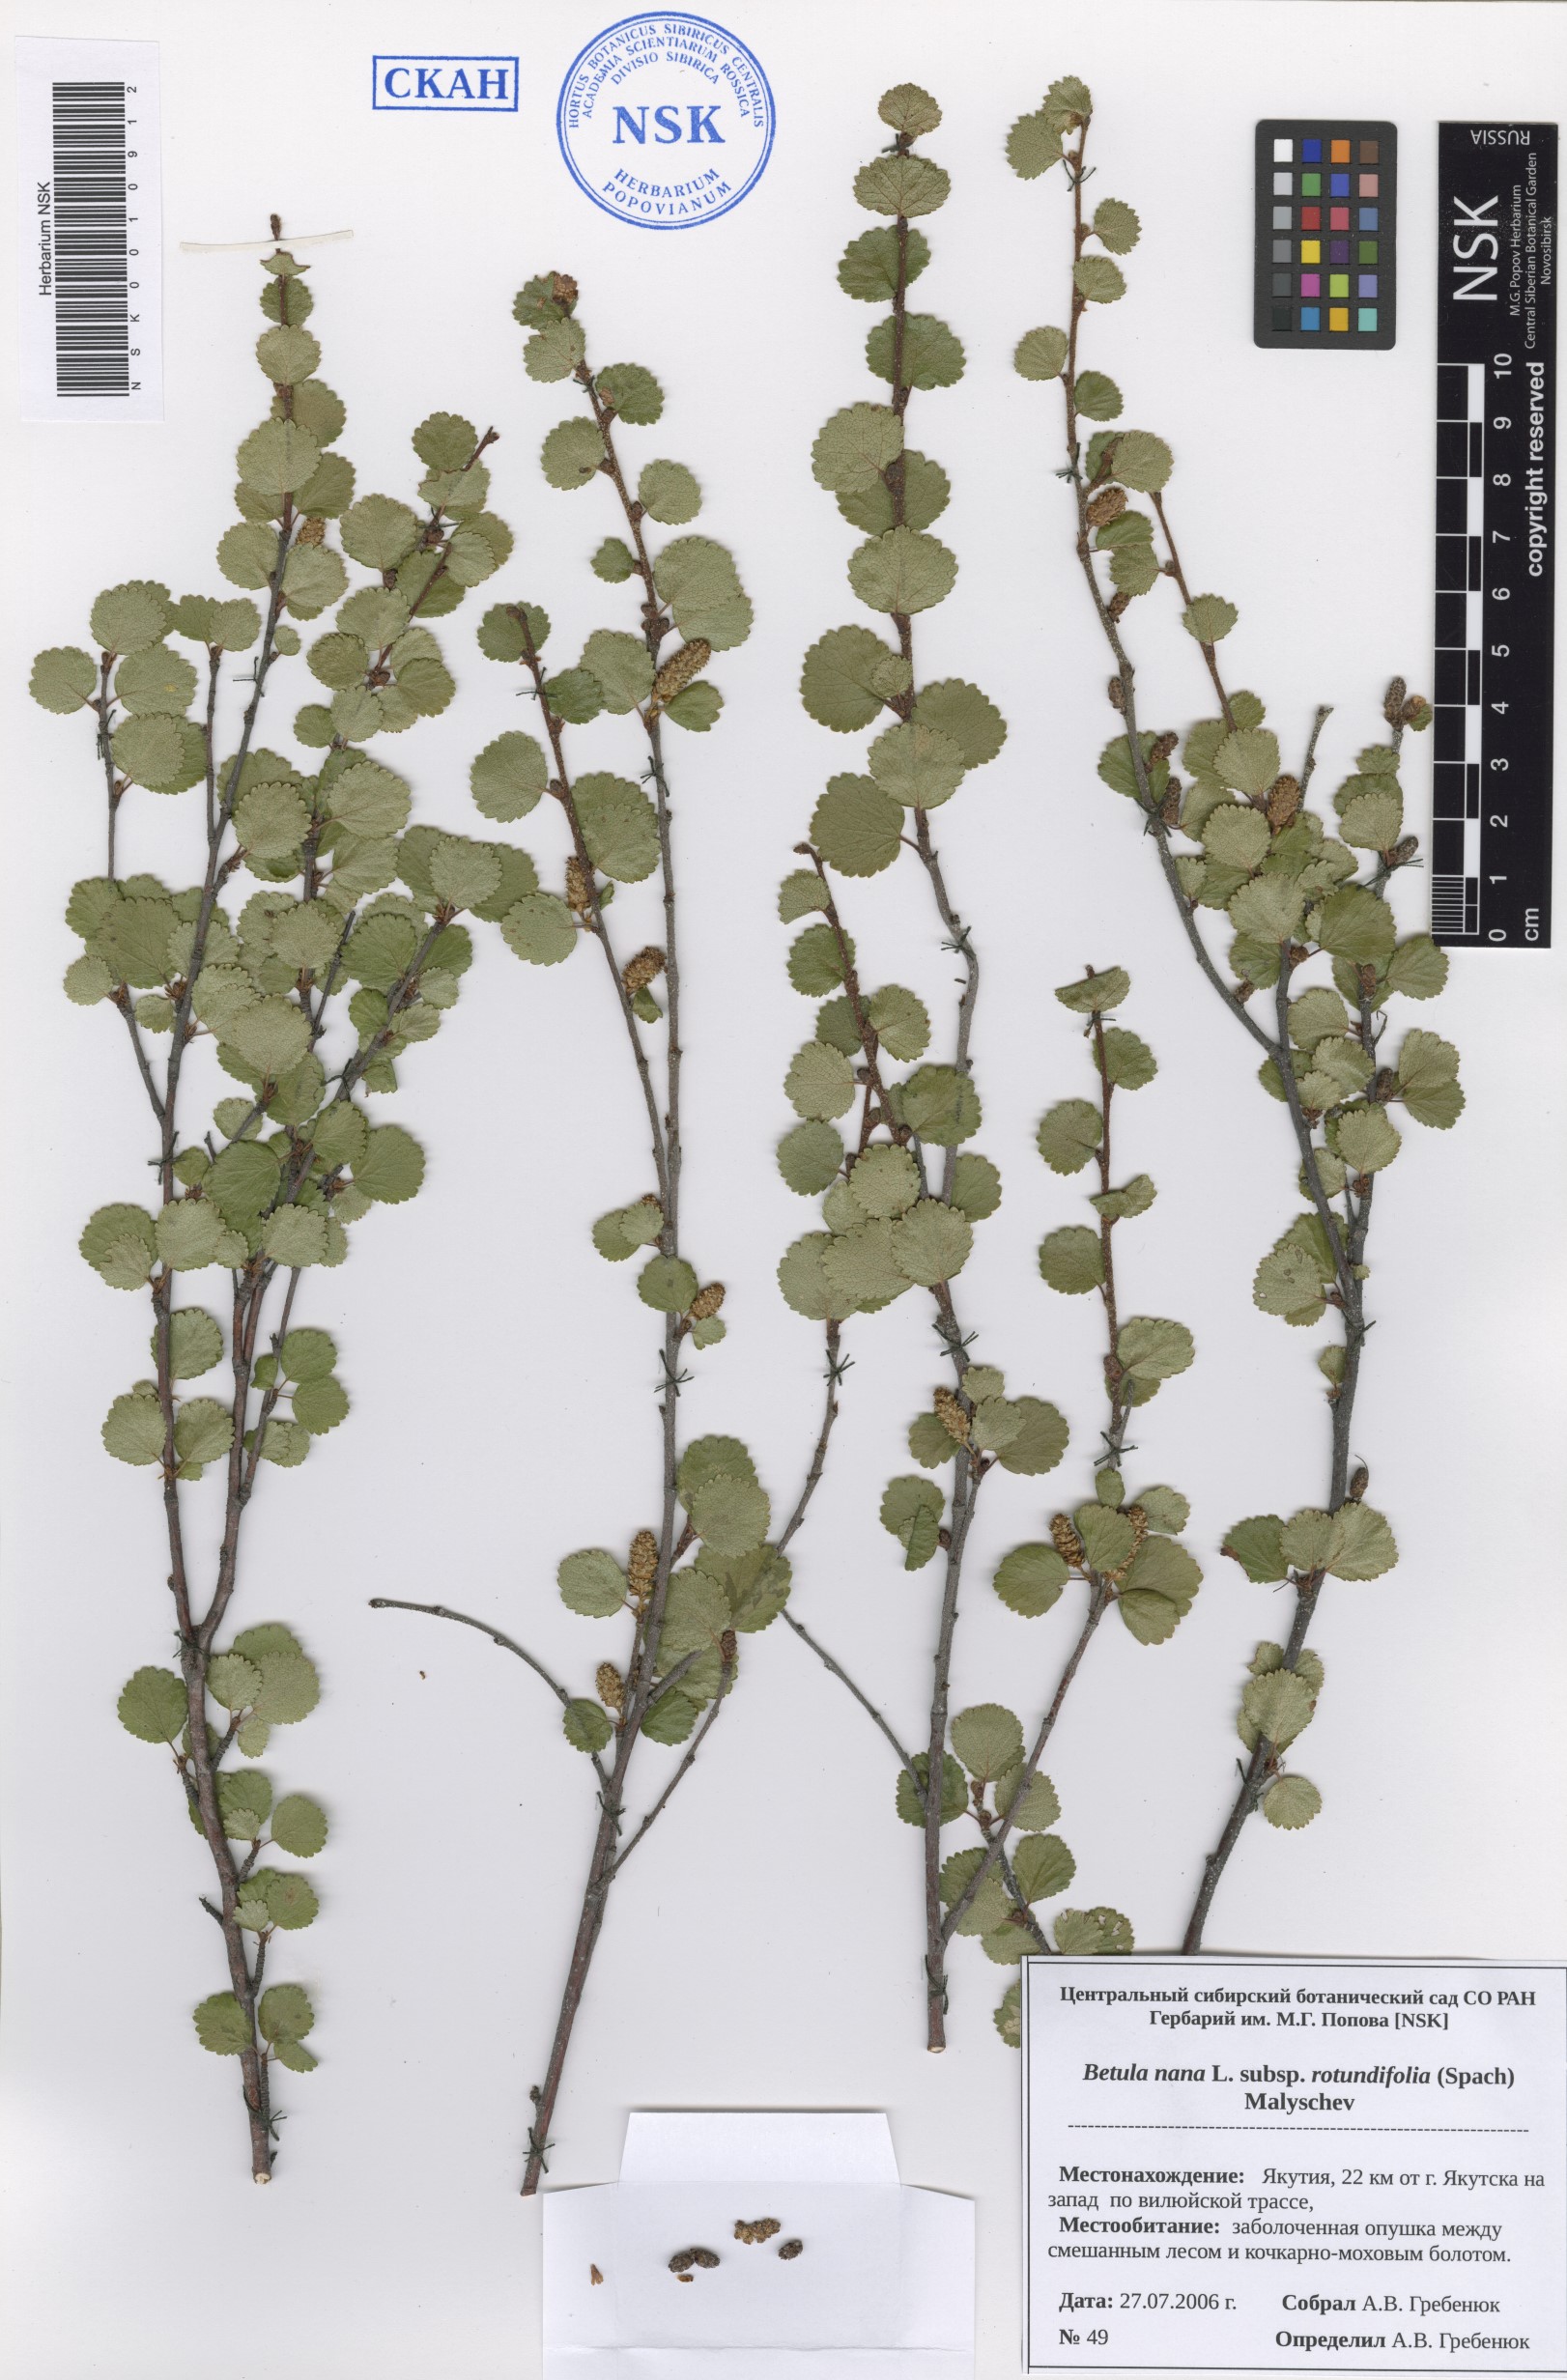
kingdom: Plantae
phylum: Tracheophyta
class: Magnoliopsida
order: Fagales
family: Betulaceae
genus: Betula
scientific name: Betula glandulosa
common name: Dwarf birch
